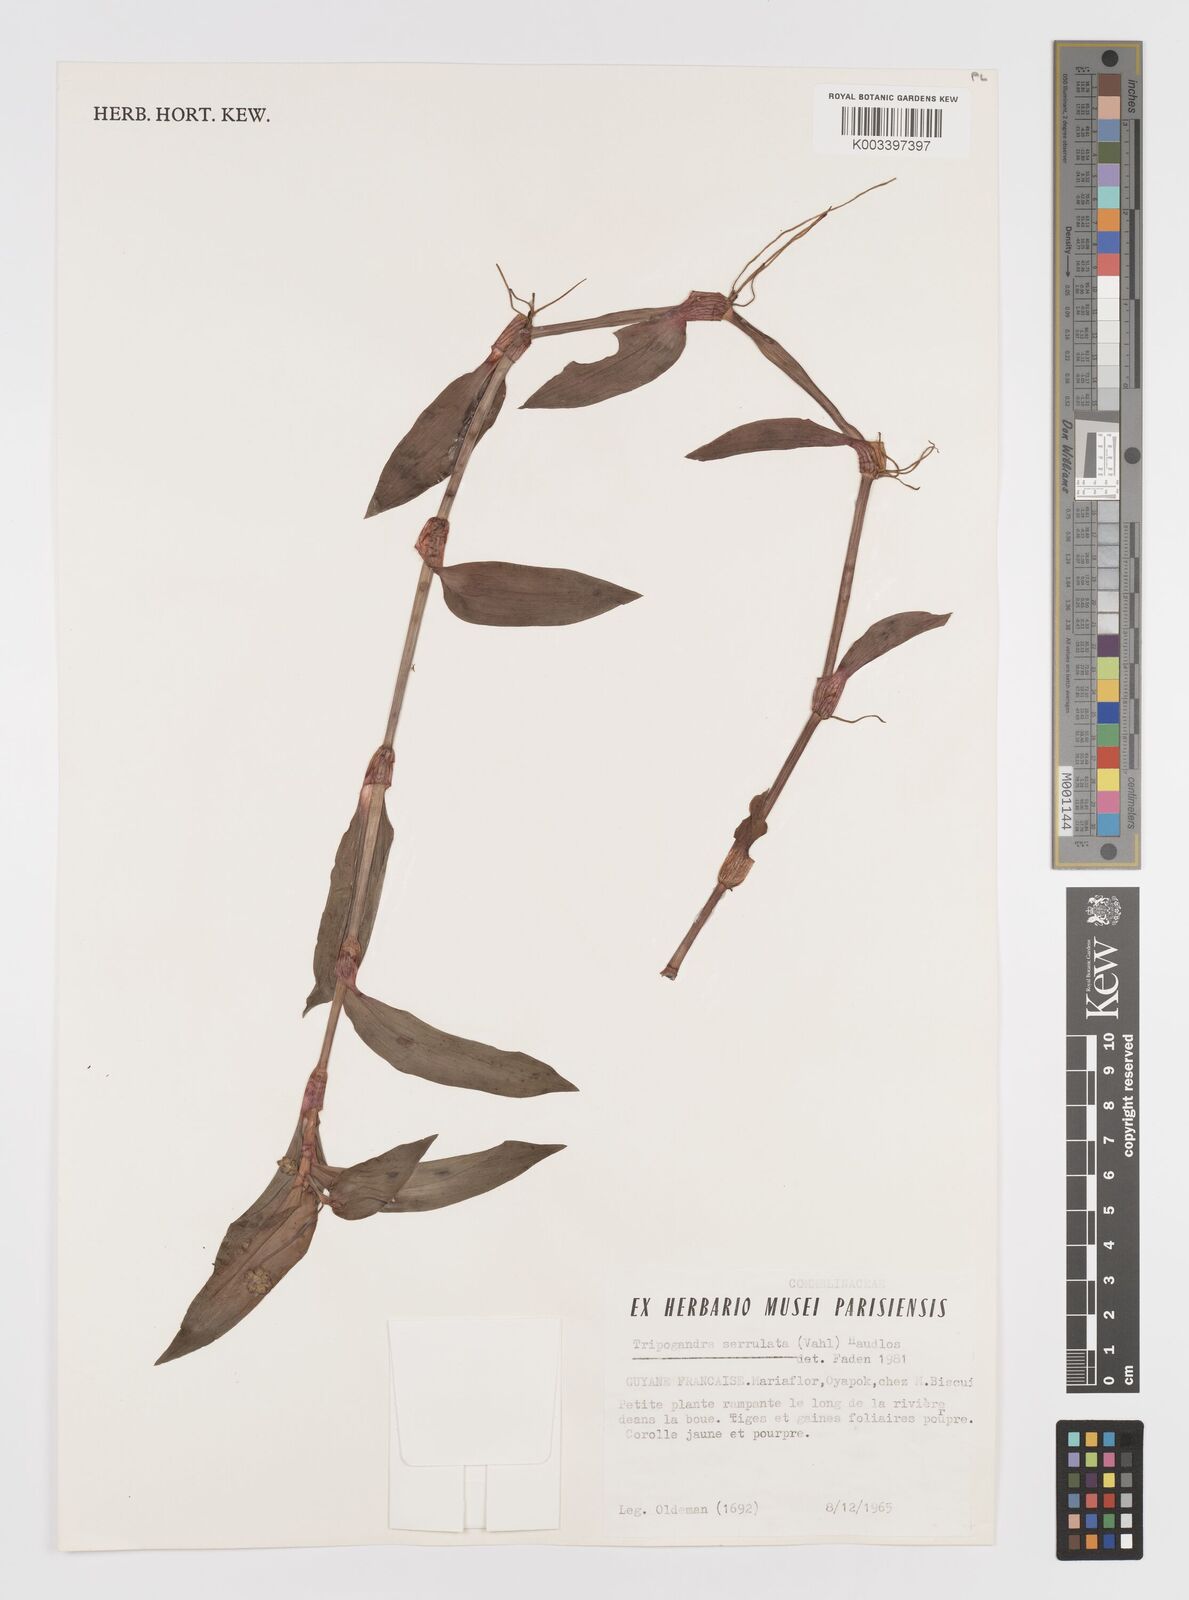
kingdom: Plantae
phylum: Tracheophyta
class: Liliopsida
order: Commelinales
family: Commelinaceae
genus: Callisia
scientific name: Callisia serrulata
